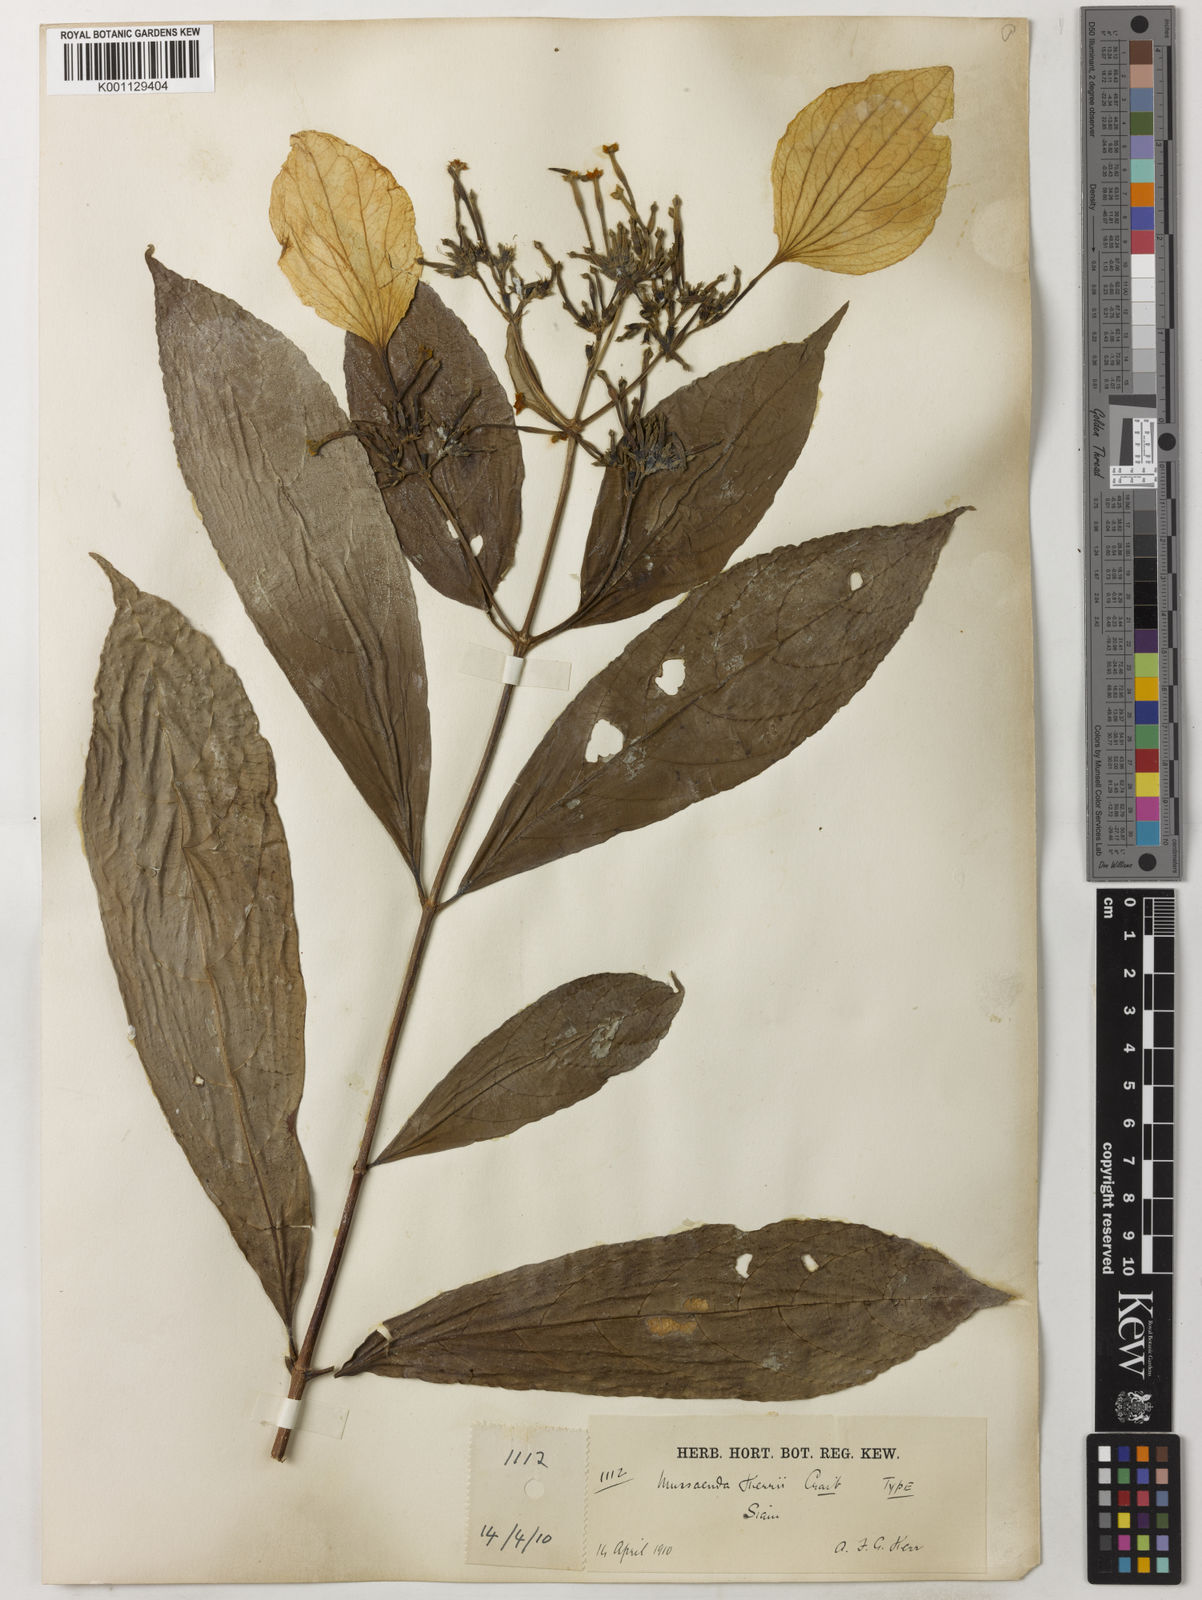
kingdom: Plantae
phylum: Tracheophyta
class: Magnoliopsida
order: Gentianales
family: Rubiaceae
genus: Mussaenda
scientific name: Mussaenda kerrii
